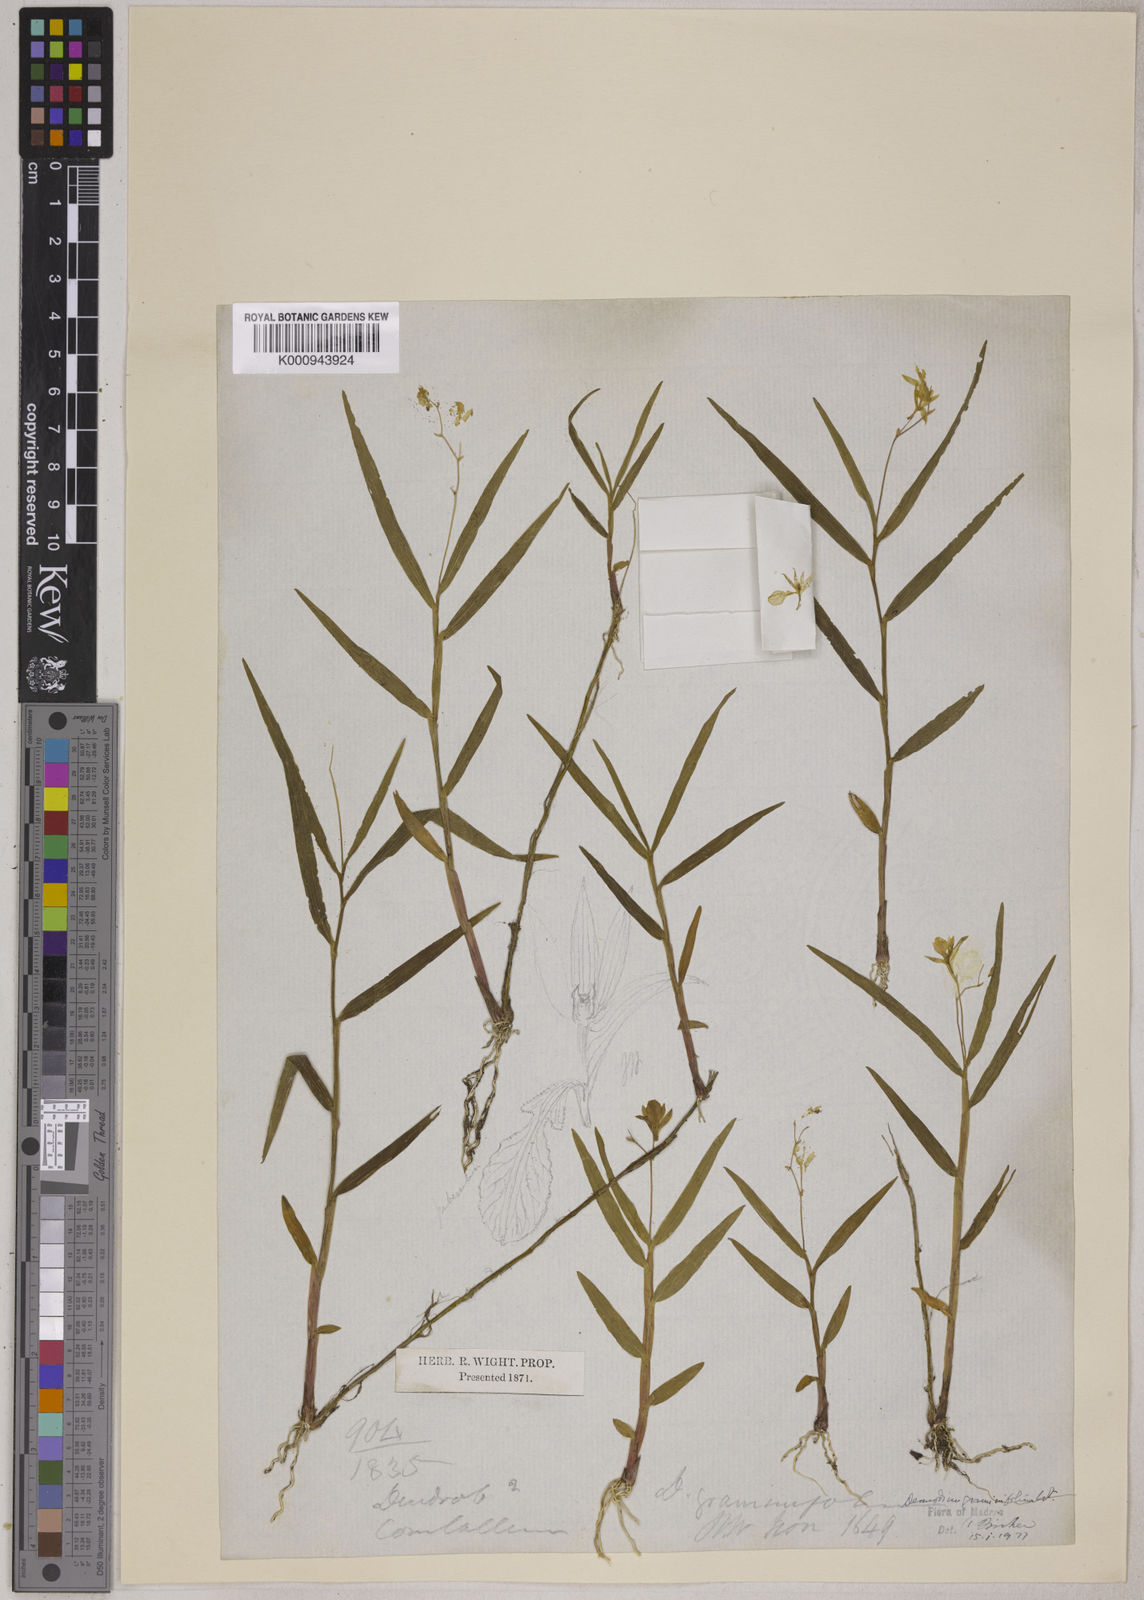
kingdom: Plantae
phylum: Tracheophyta
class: Liliopsida
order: Asparagales
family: Orchidaceae
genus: Dendrobium
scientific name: Dendrobium wightii
